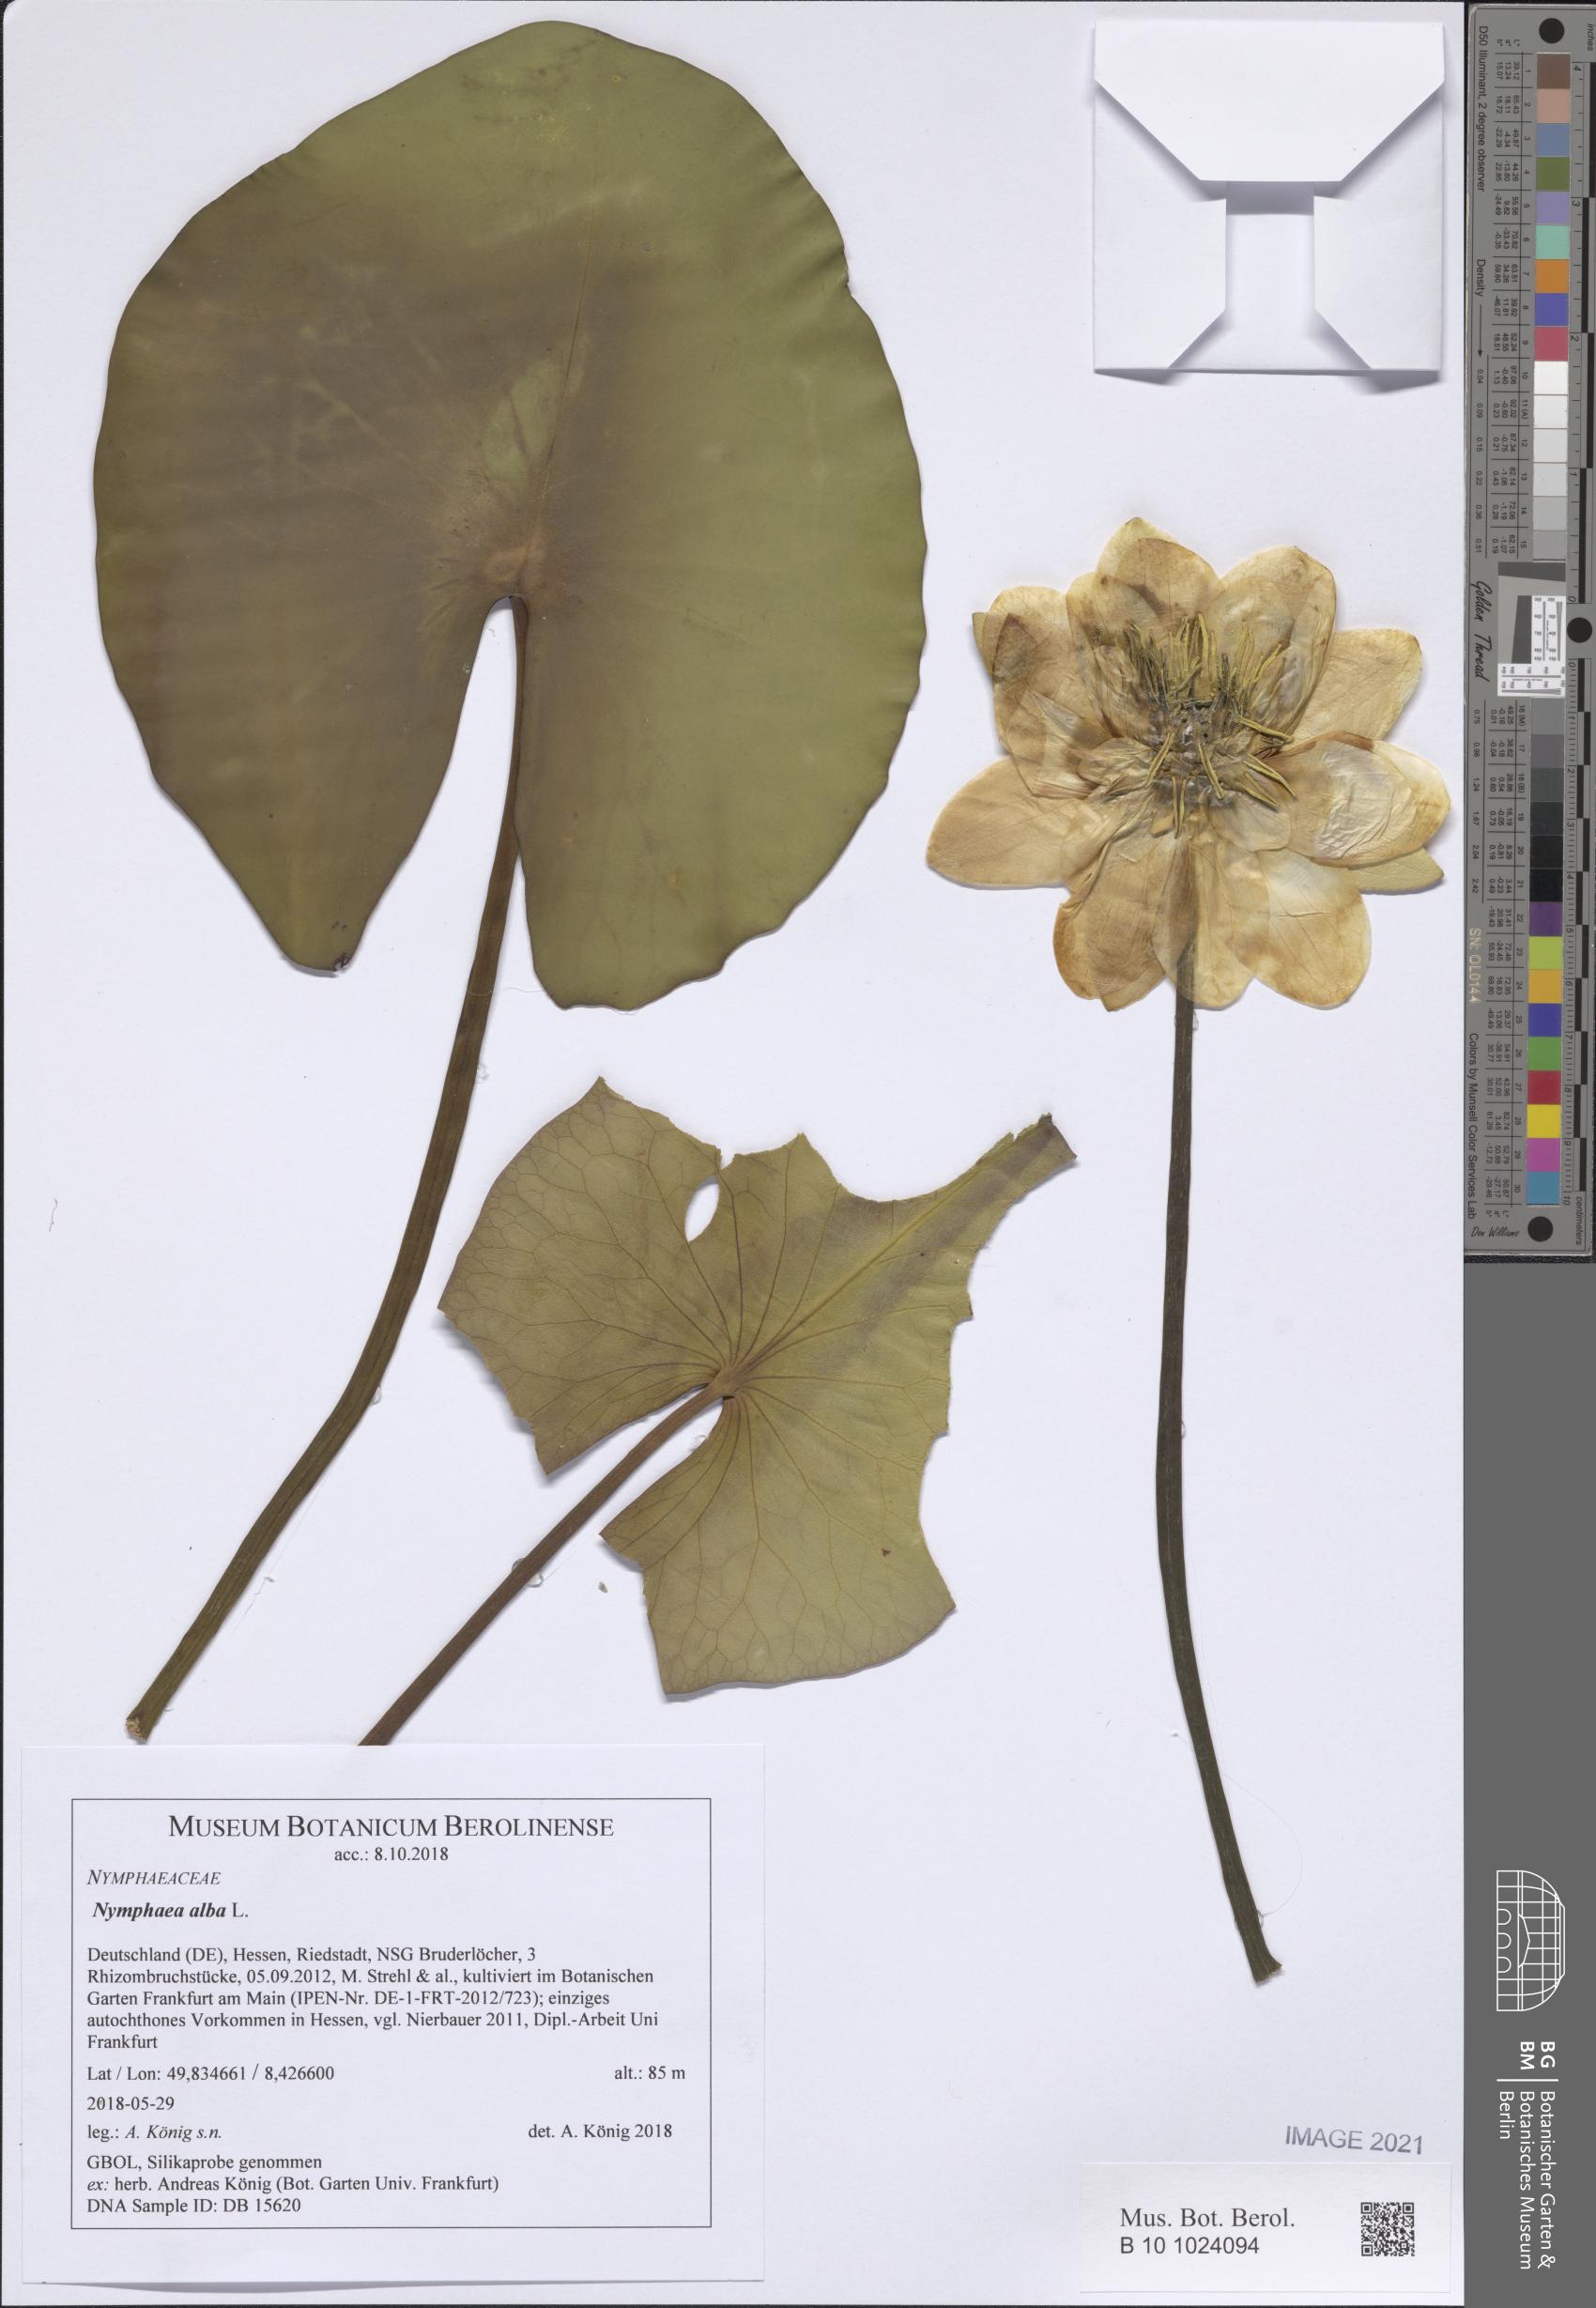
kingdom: Plantae
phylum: Tracheophyta
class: Magnoliopsida
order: Nymphaeales
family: Nymphaeaceae
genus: Nymphaea
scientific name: Nymphaea alba
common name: White water-lily
